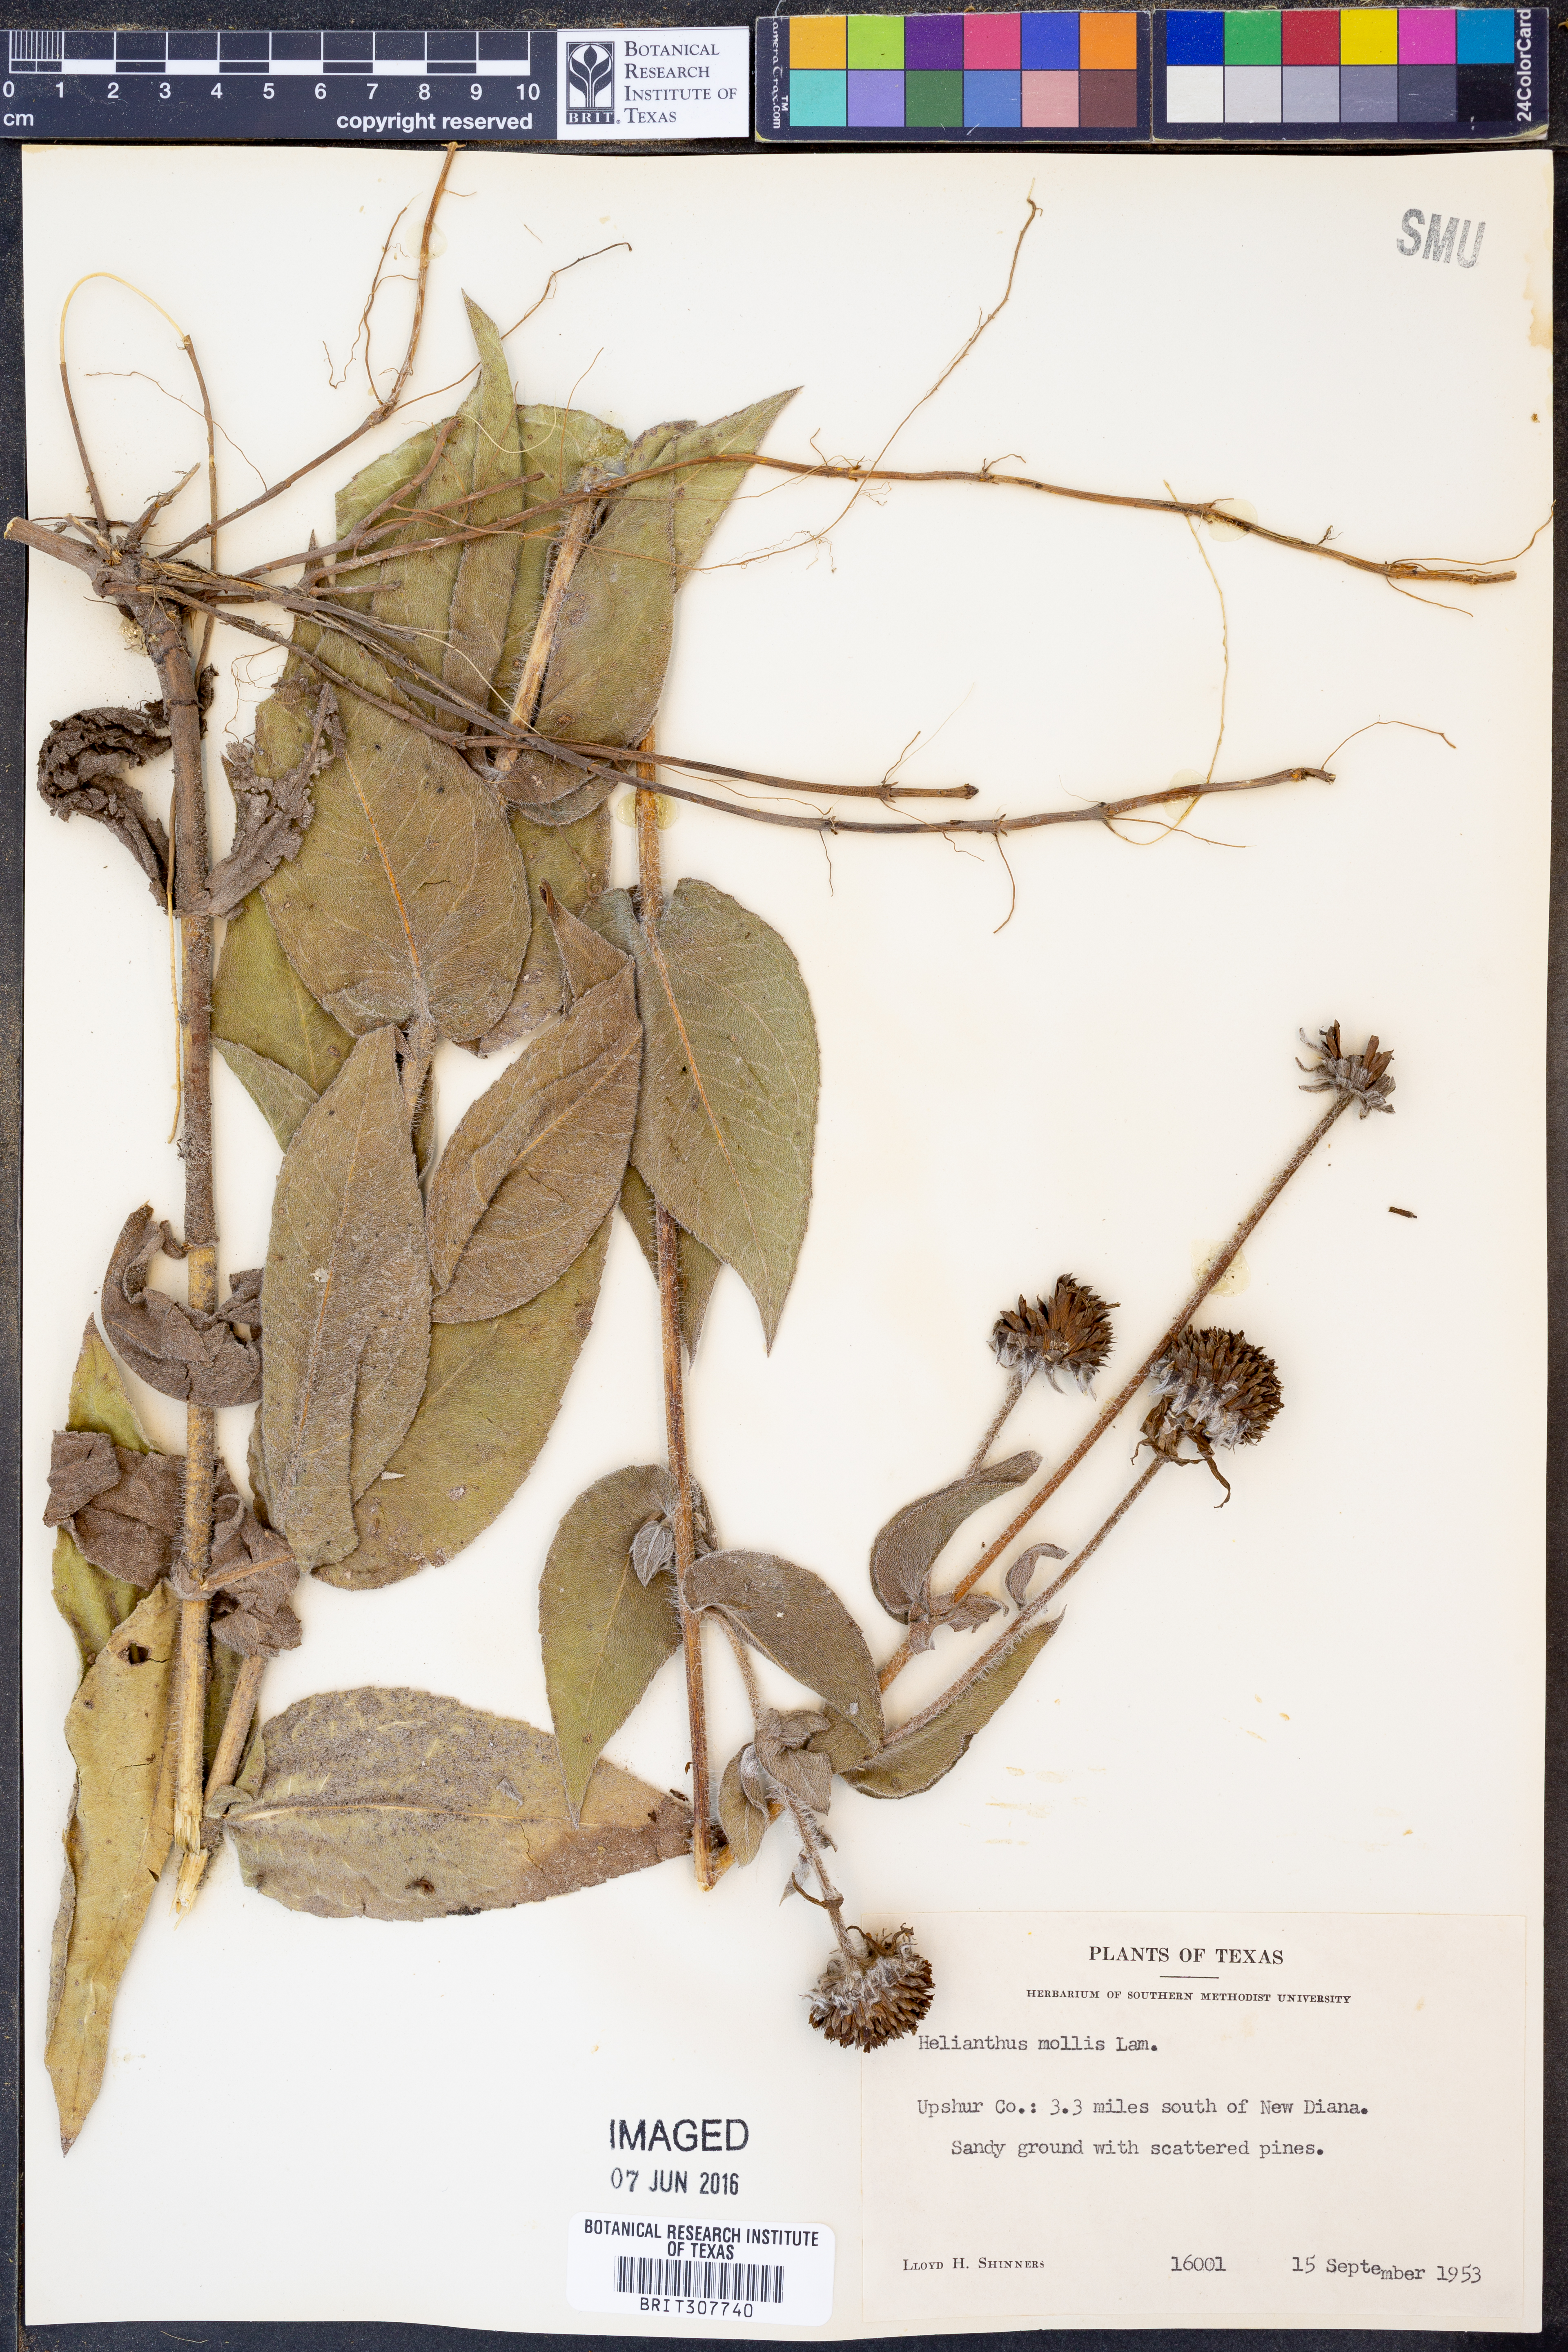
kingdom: Plantae
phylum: Tracheophyta
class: Magnoliopsida
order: Asterales
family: Asteraceae
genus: Helianthus
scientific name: Helianthus mollis
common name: Ashy sunflower
